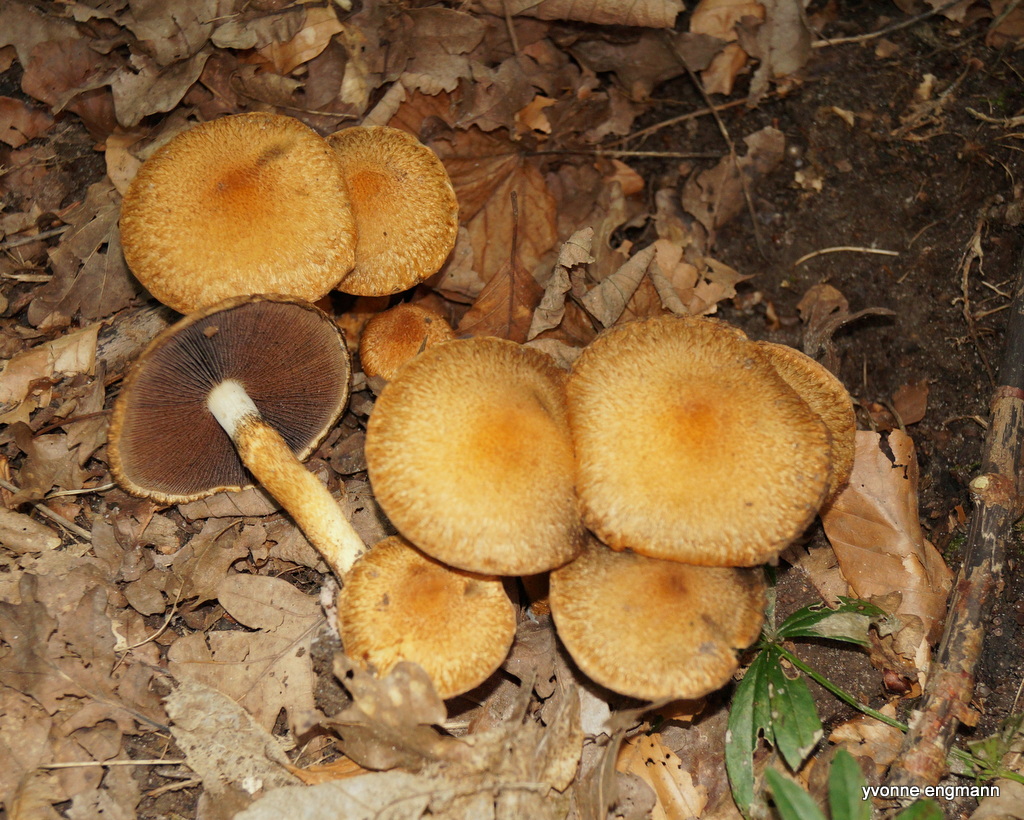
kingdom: Fungi
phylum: Basidiomycota
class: Agaricomycetes
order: Agaricales
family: Psathyrellaceae
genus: Lacrymaria
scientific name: Lacrymaria lacrymabunda
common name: grædende mørkhat
